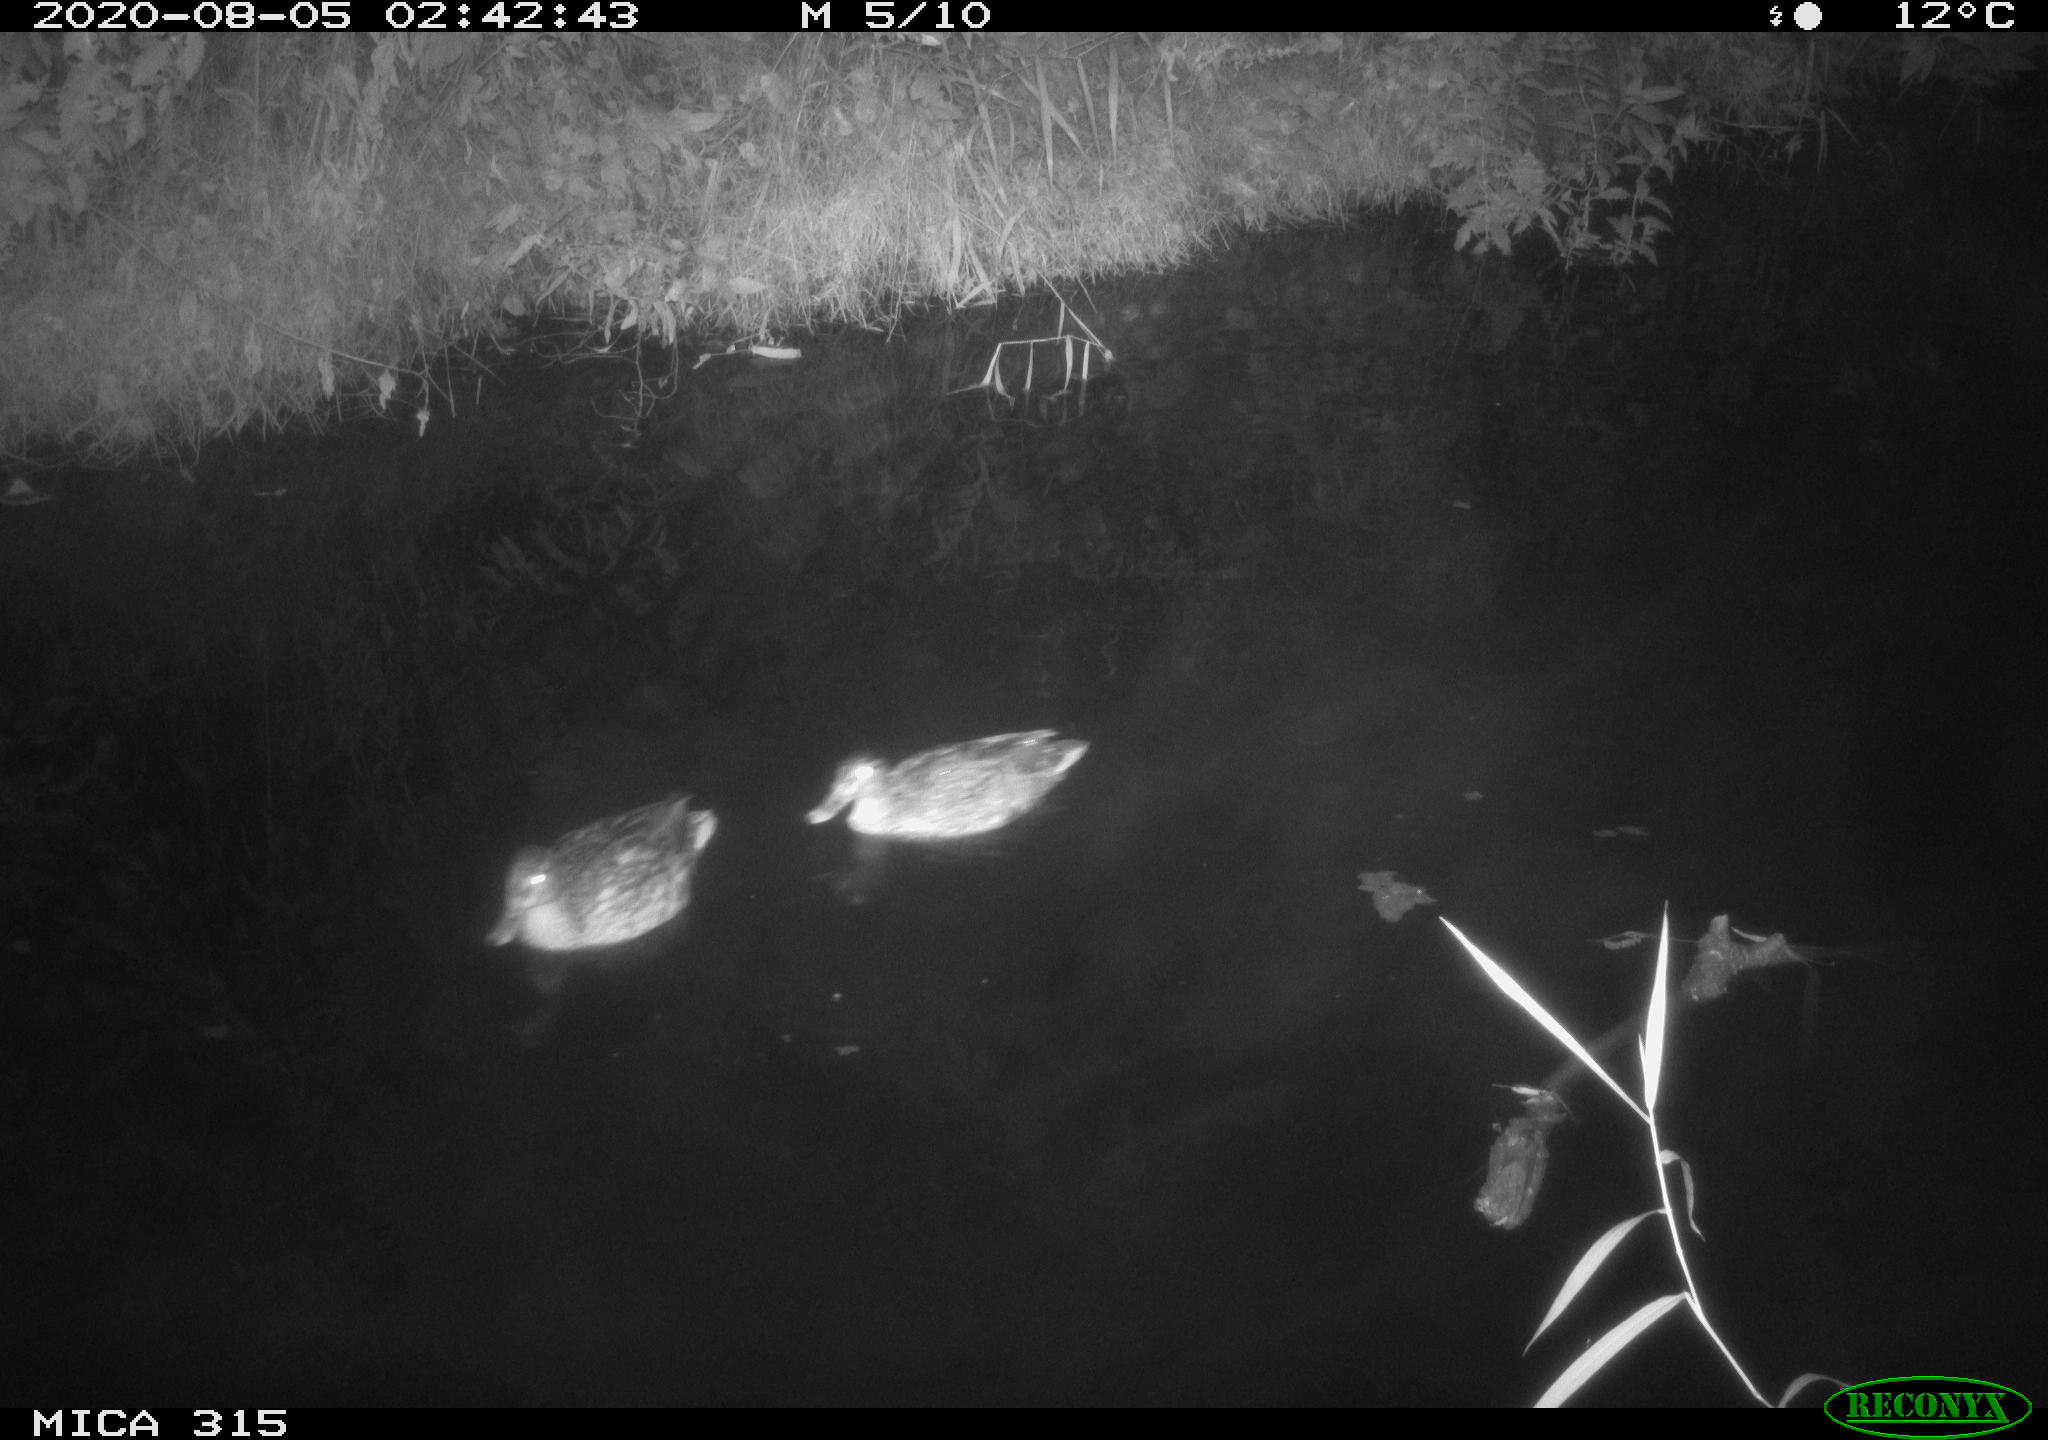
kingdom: Animalia
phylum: Chordata
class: Aves
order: Anseriformes
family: Anatidae
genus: Anas
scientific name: Anas platyrhynchos
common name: Mallard
